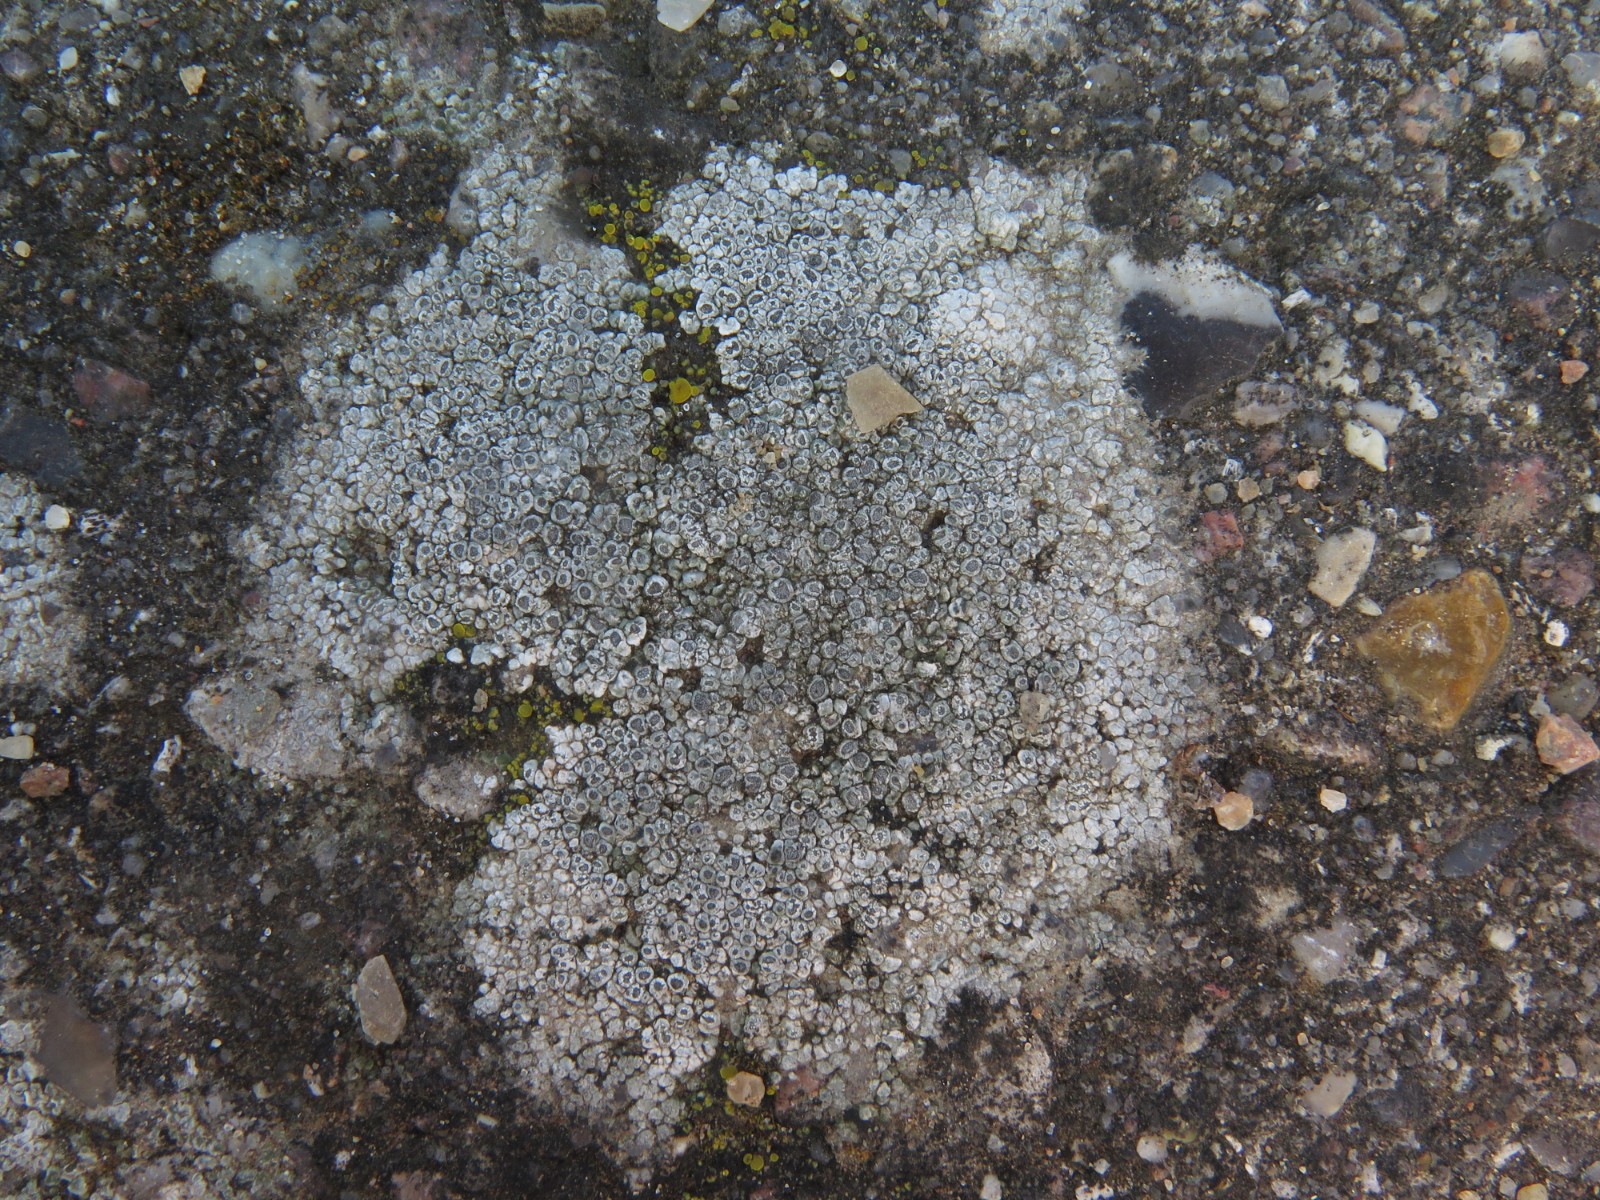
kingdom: Fungi
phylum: Ascomycota
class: Lecanoromycetes
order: Pertusariales
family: Megasporaceae
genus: Circinaria
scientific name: Circinaria contorta
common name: indviklet hulskivelav
